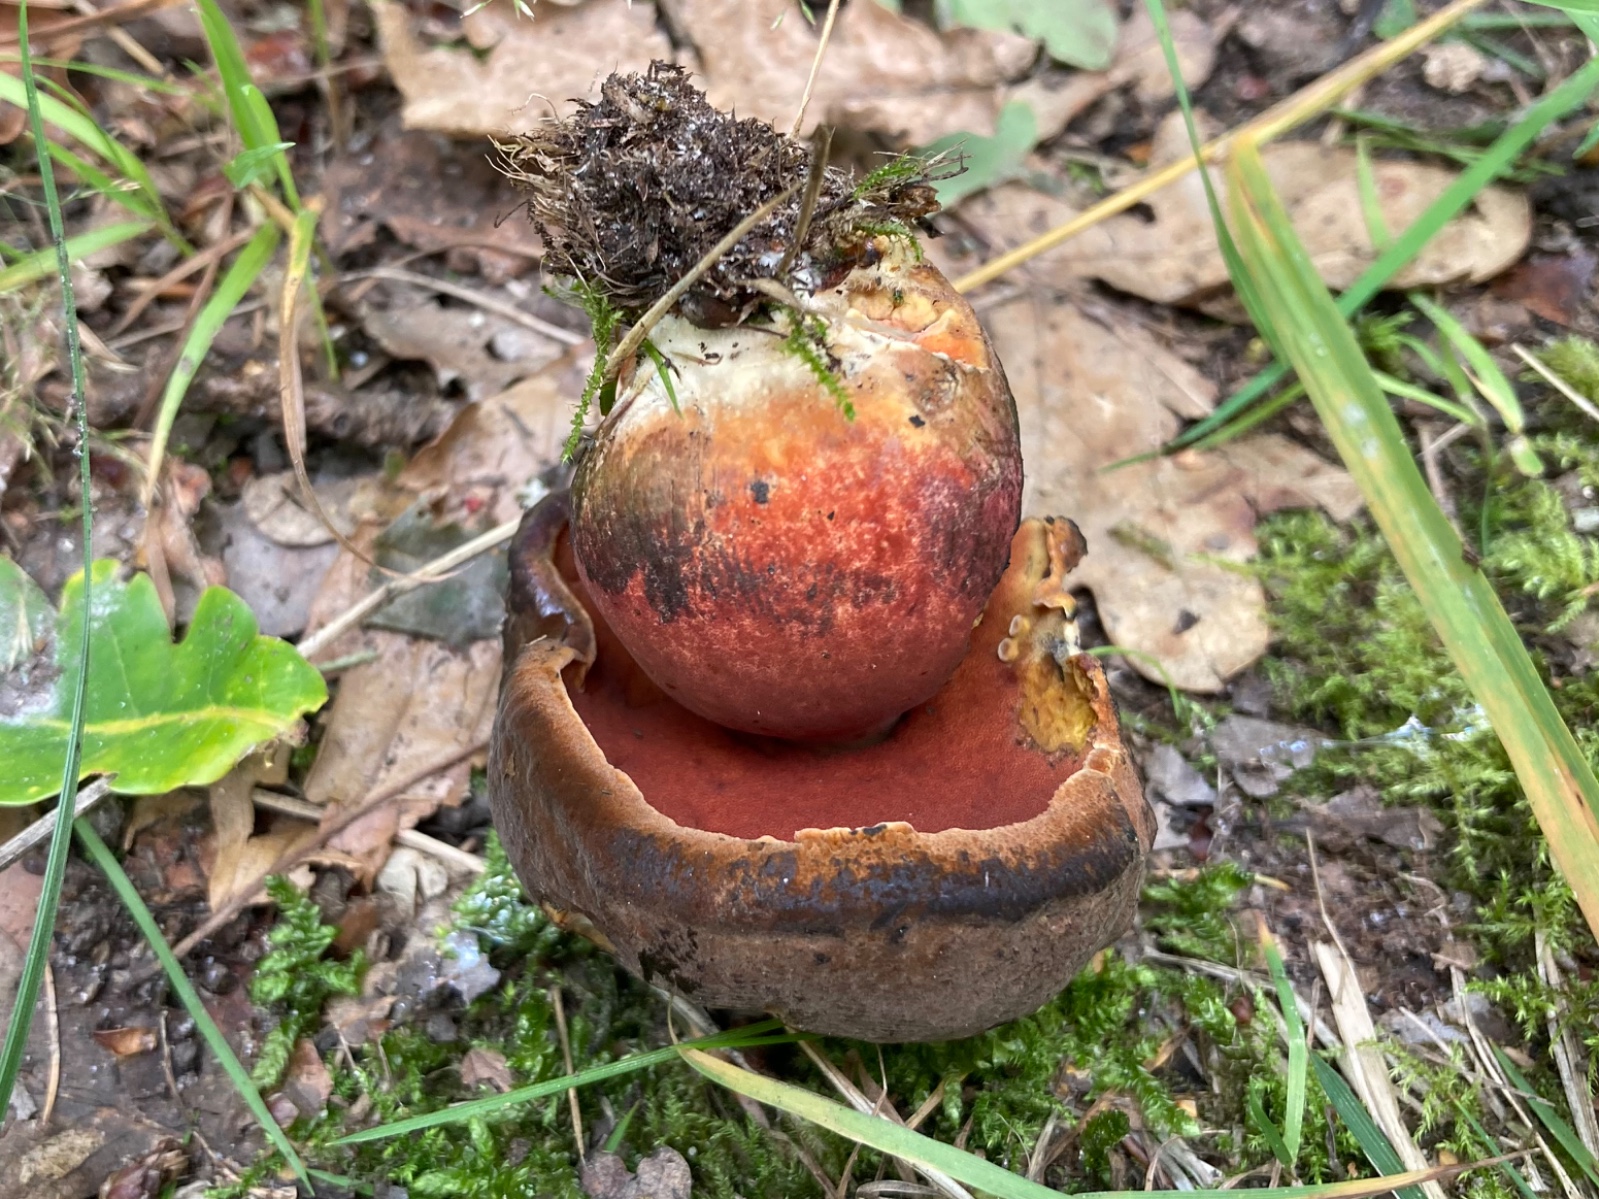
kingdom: Fungi
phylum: Basidiomycota
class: Agaricomycetes
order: Boletales
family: Boletaceae
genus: Neoboletus
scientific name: Neoboletus erythropus
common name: punktstokket indigorørhat
